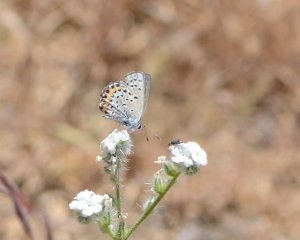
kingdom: Animalia
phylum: Arthropoda
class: Insecta
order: Lepidoptera
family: Lycaenidae
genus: Plebejus
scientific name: Plebejus acmon
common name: Acmon Blue
